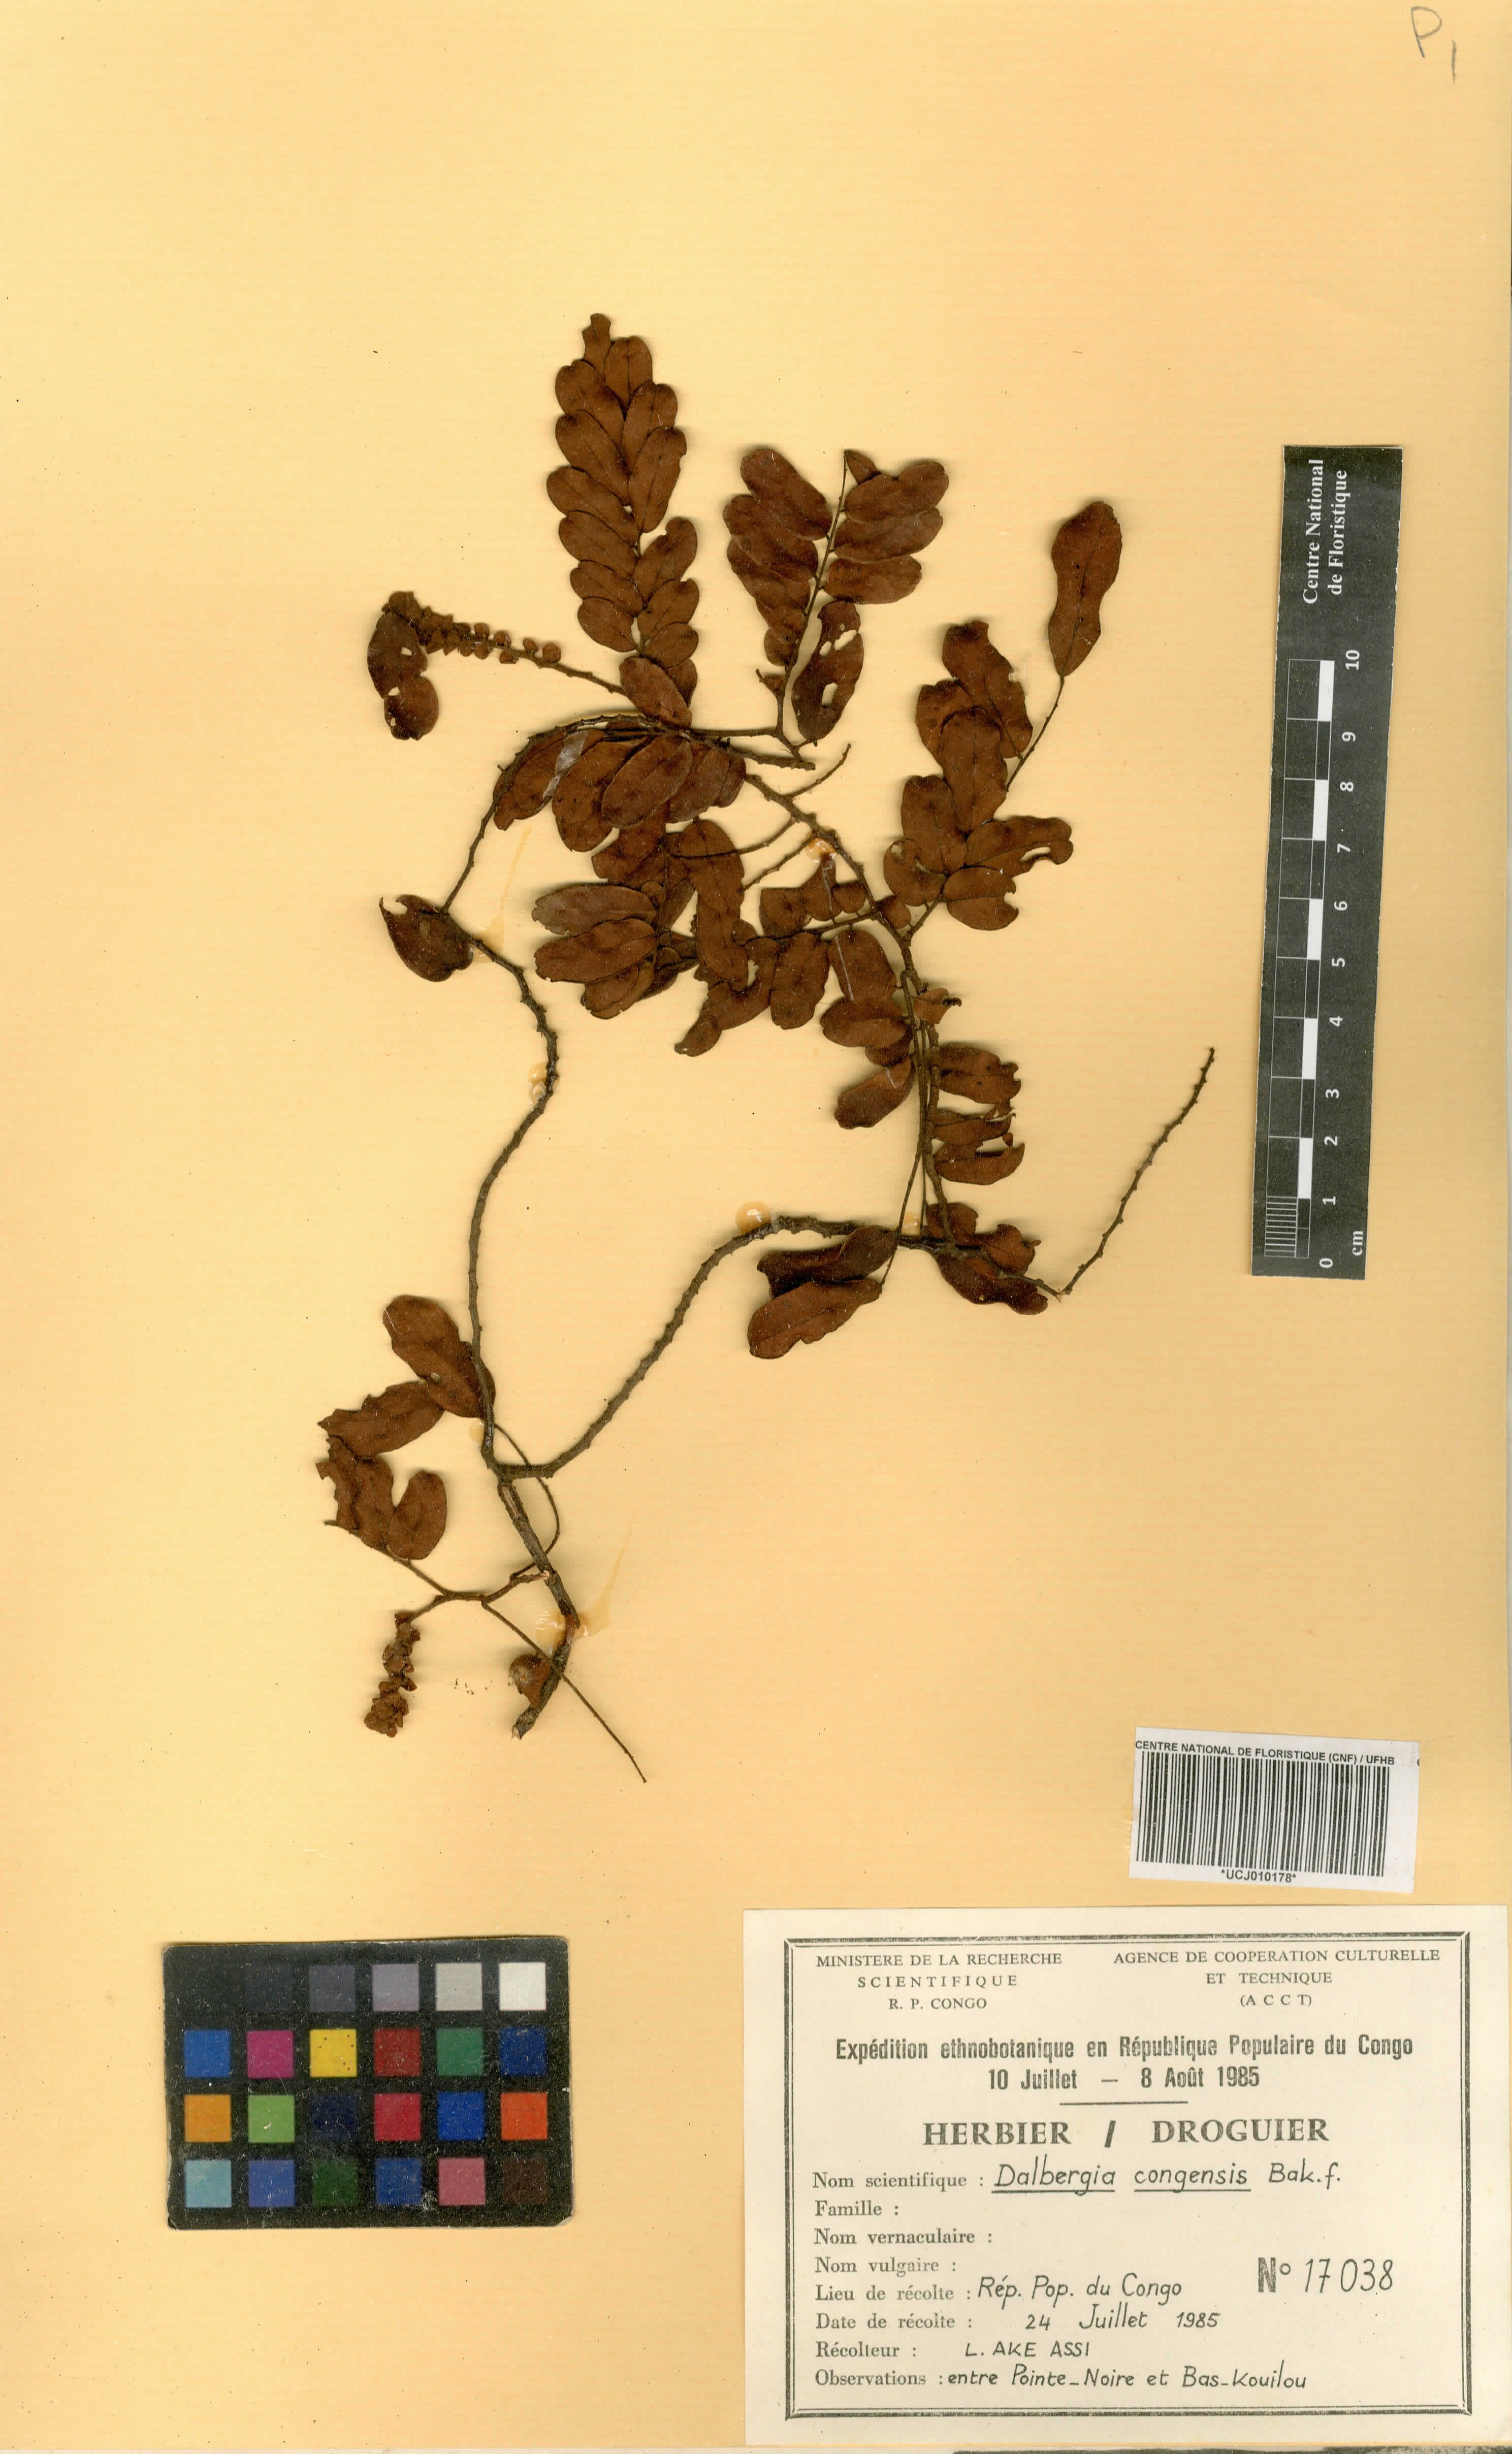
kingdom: Plantae
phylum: Tracheophyta
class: Magnoliopsida
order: Fabales
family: Fabaceae
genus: Dalbergia
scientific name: Dalbergia congensis
